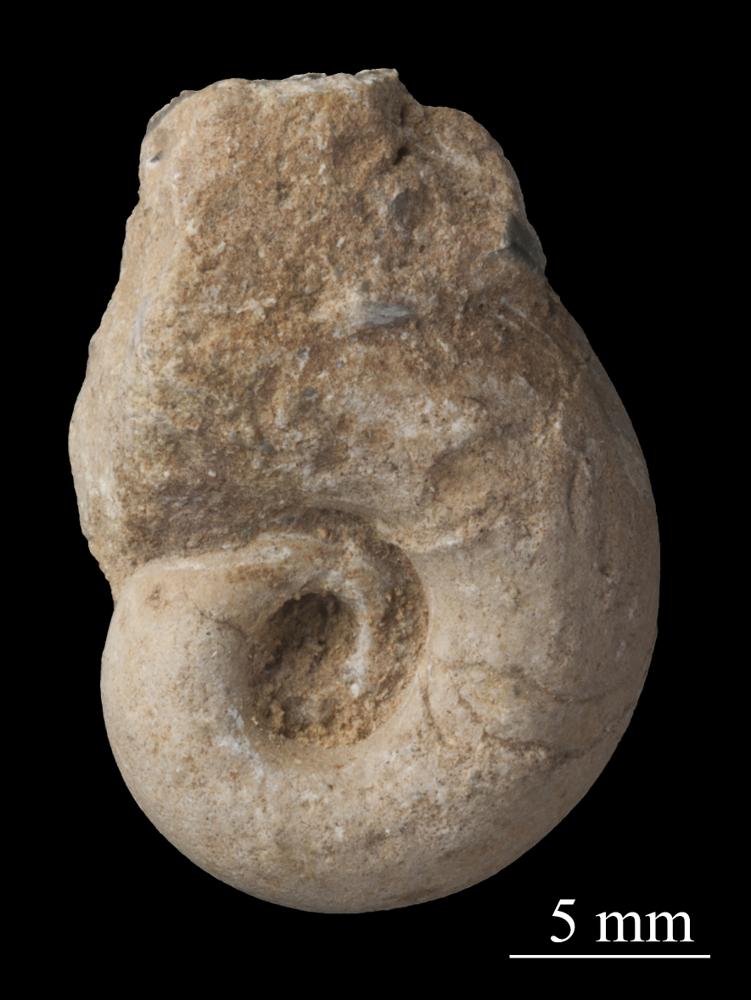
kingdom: Animalia
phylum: Mollusca
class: Gastropoda
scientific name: Gastropoda
